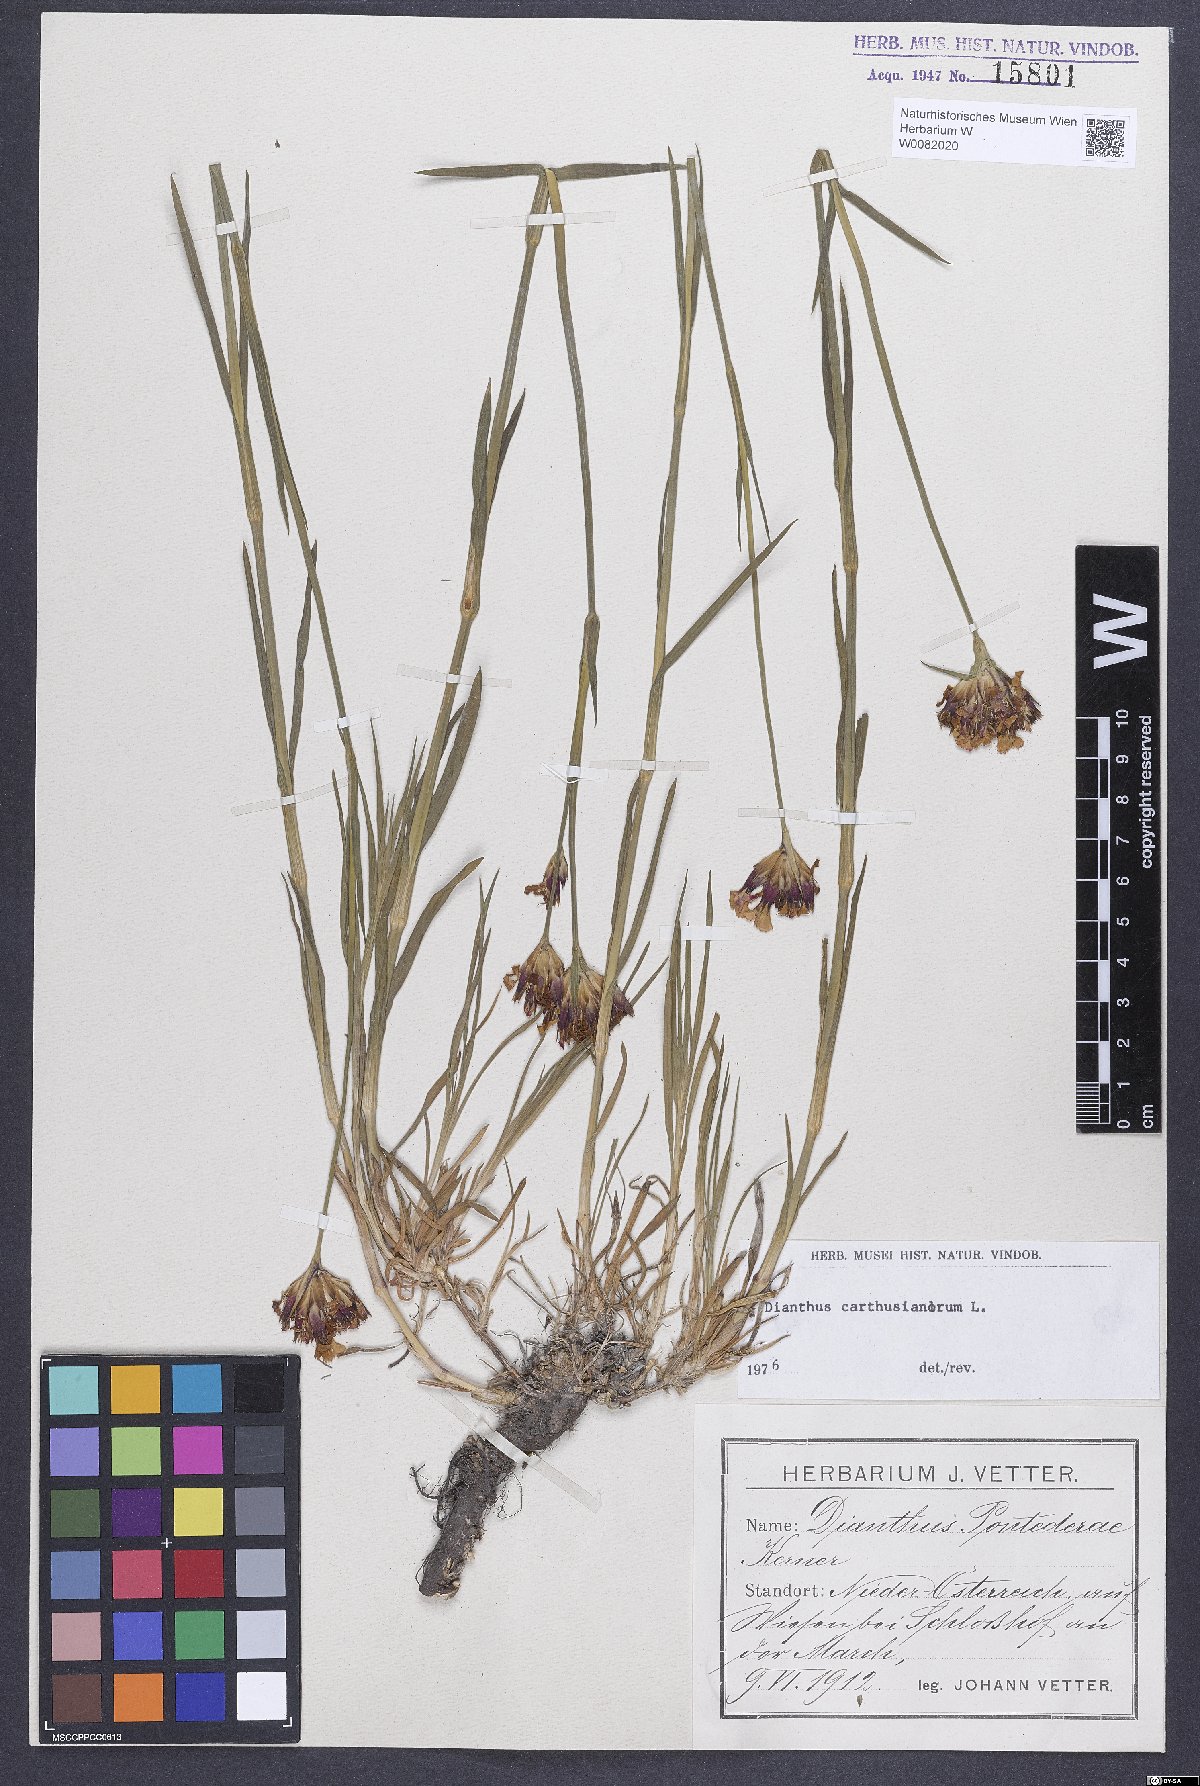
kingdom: Plantae
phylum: Tracheophyta
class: Magnoliopsida
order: Caryophyllales
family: Caryophyllaceae
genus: Dianthus
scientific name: Dianthus carthusianorum
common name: Carthusian pink
